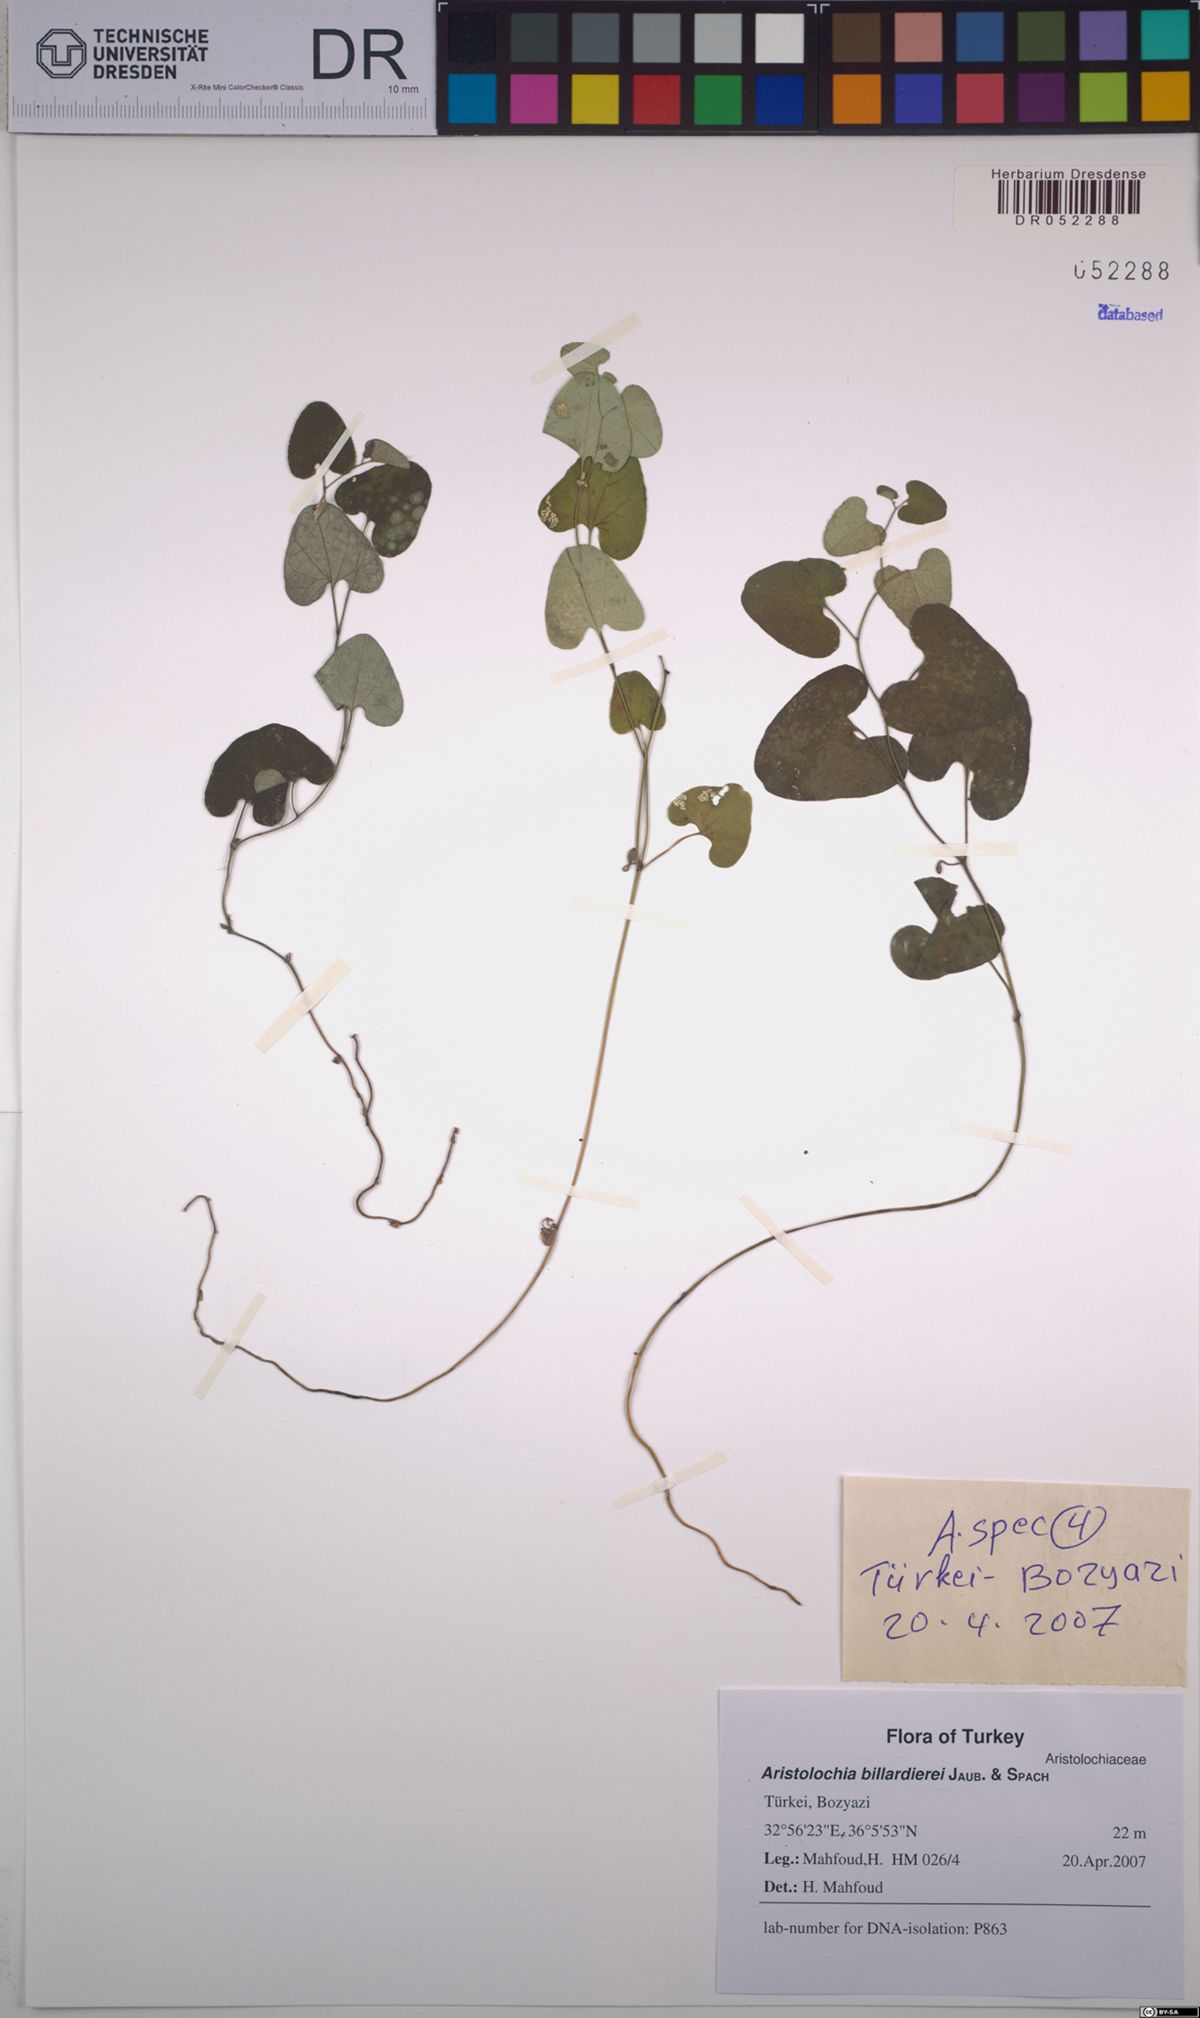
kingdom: Plantae
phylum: Tracheophyta
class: Magnoliopsida
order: Piperales
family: Aristolochiaceae
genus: Aristolochia
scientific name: Aristolochia billardieri
